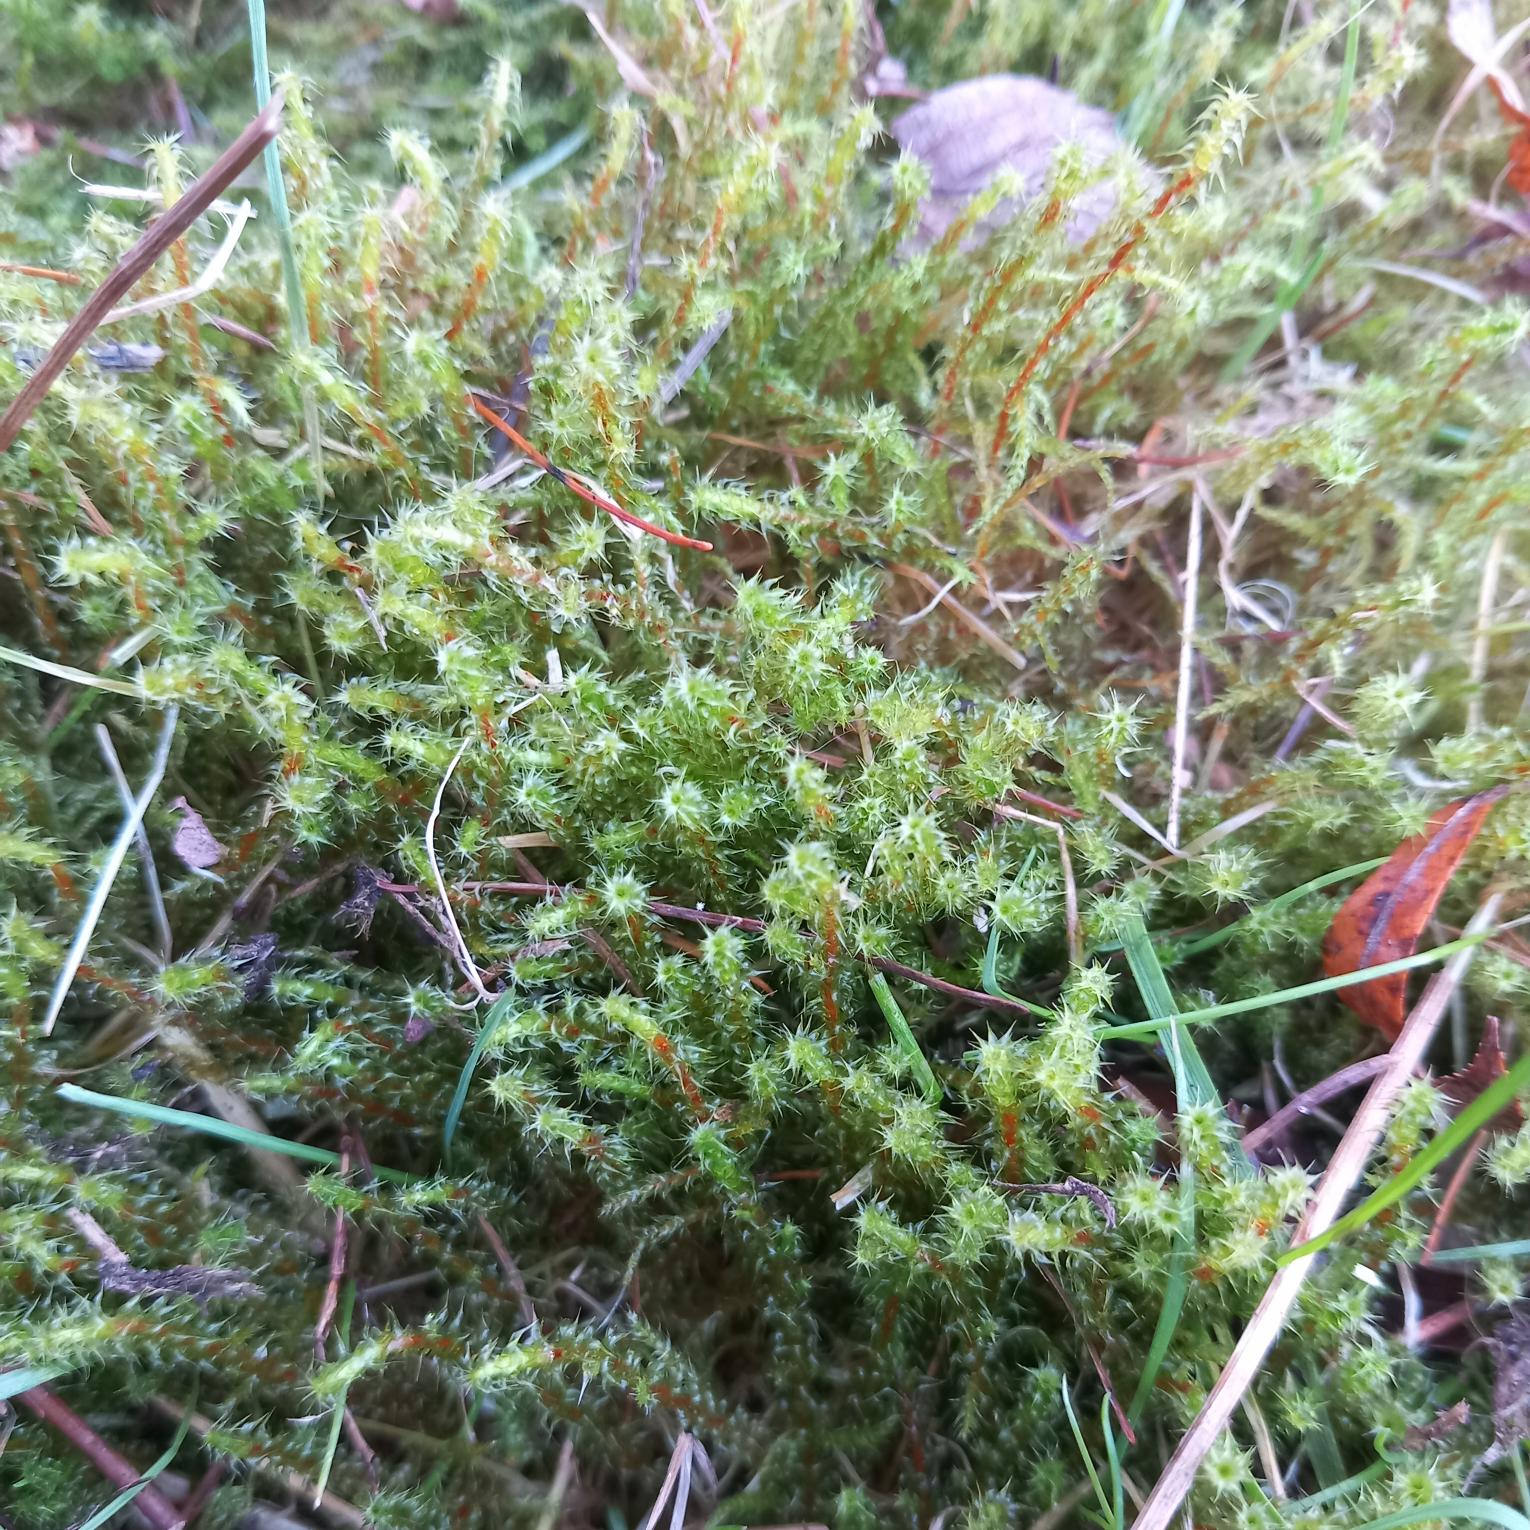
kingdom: Plantae
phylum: Bryophyta
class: Bryopsida
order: Hypnales
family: Hylocomiaceae
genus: Rhytidiadelphus
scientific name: Rhytidiadelphus squarrosus
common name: Plæne-kransemos
